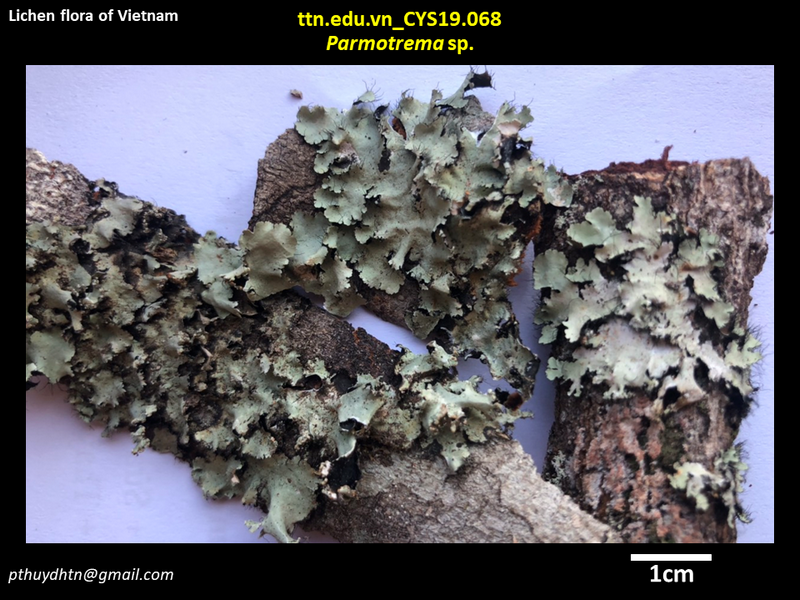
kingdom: Fungi
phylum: Ascomycota
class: Lecanoromycetes
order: Lecanorales
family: Parmeliaceae
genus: Parmotrema
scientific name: Parmotrema
